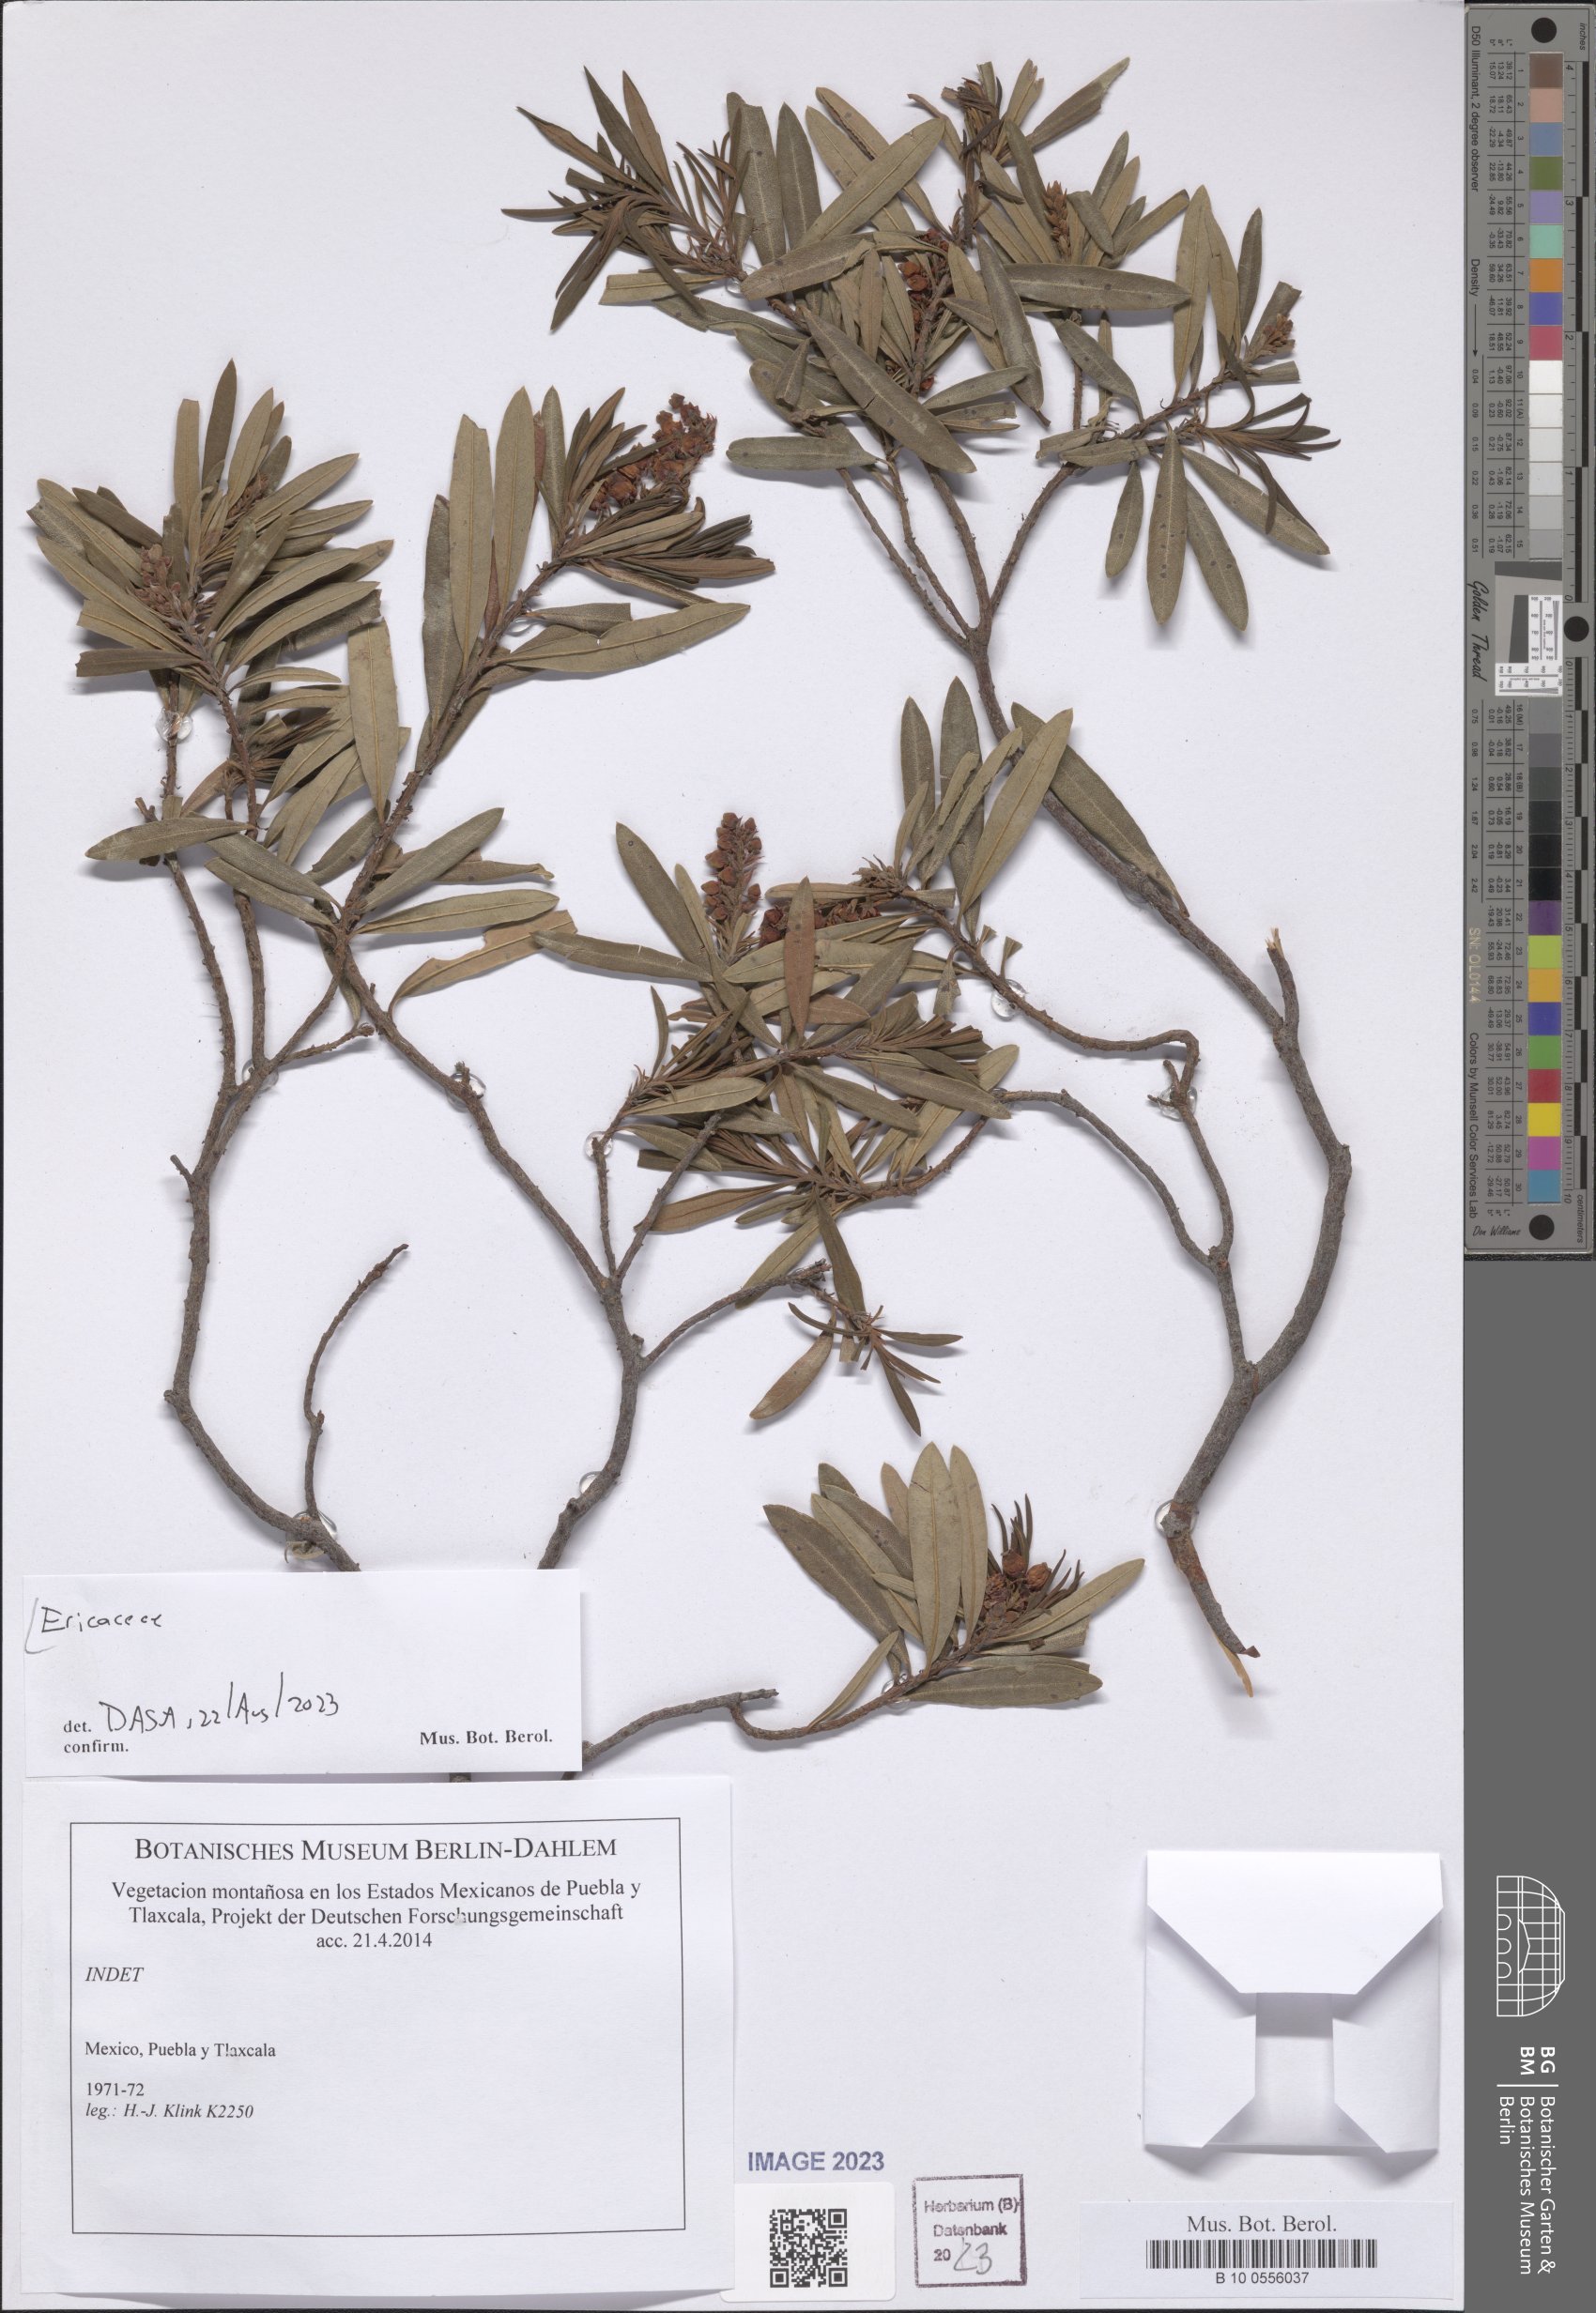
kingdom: Plantae
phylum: Tracheophyta
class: Magnoliopsida
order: Ericales
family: Ericaceae
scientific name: Ericaceae
